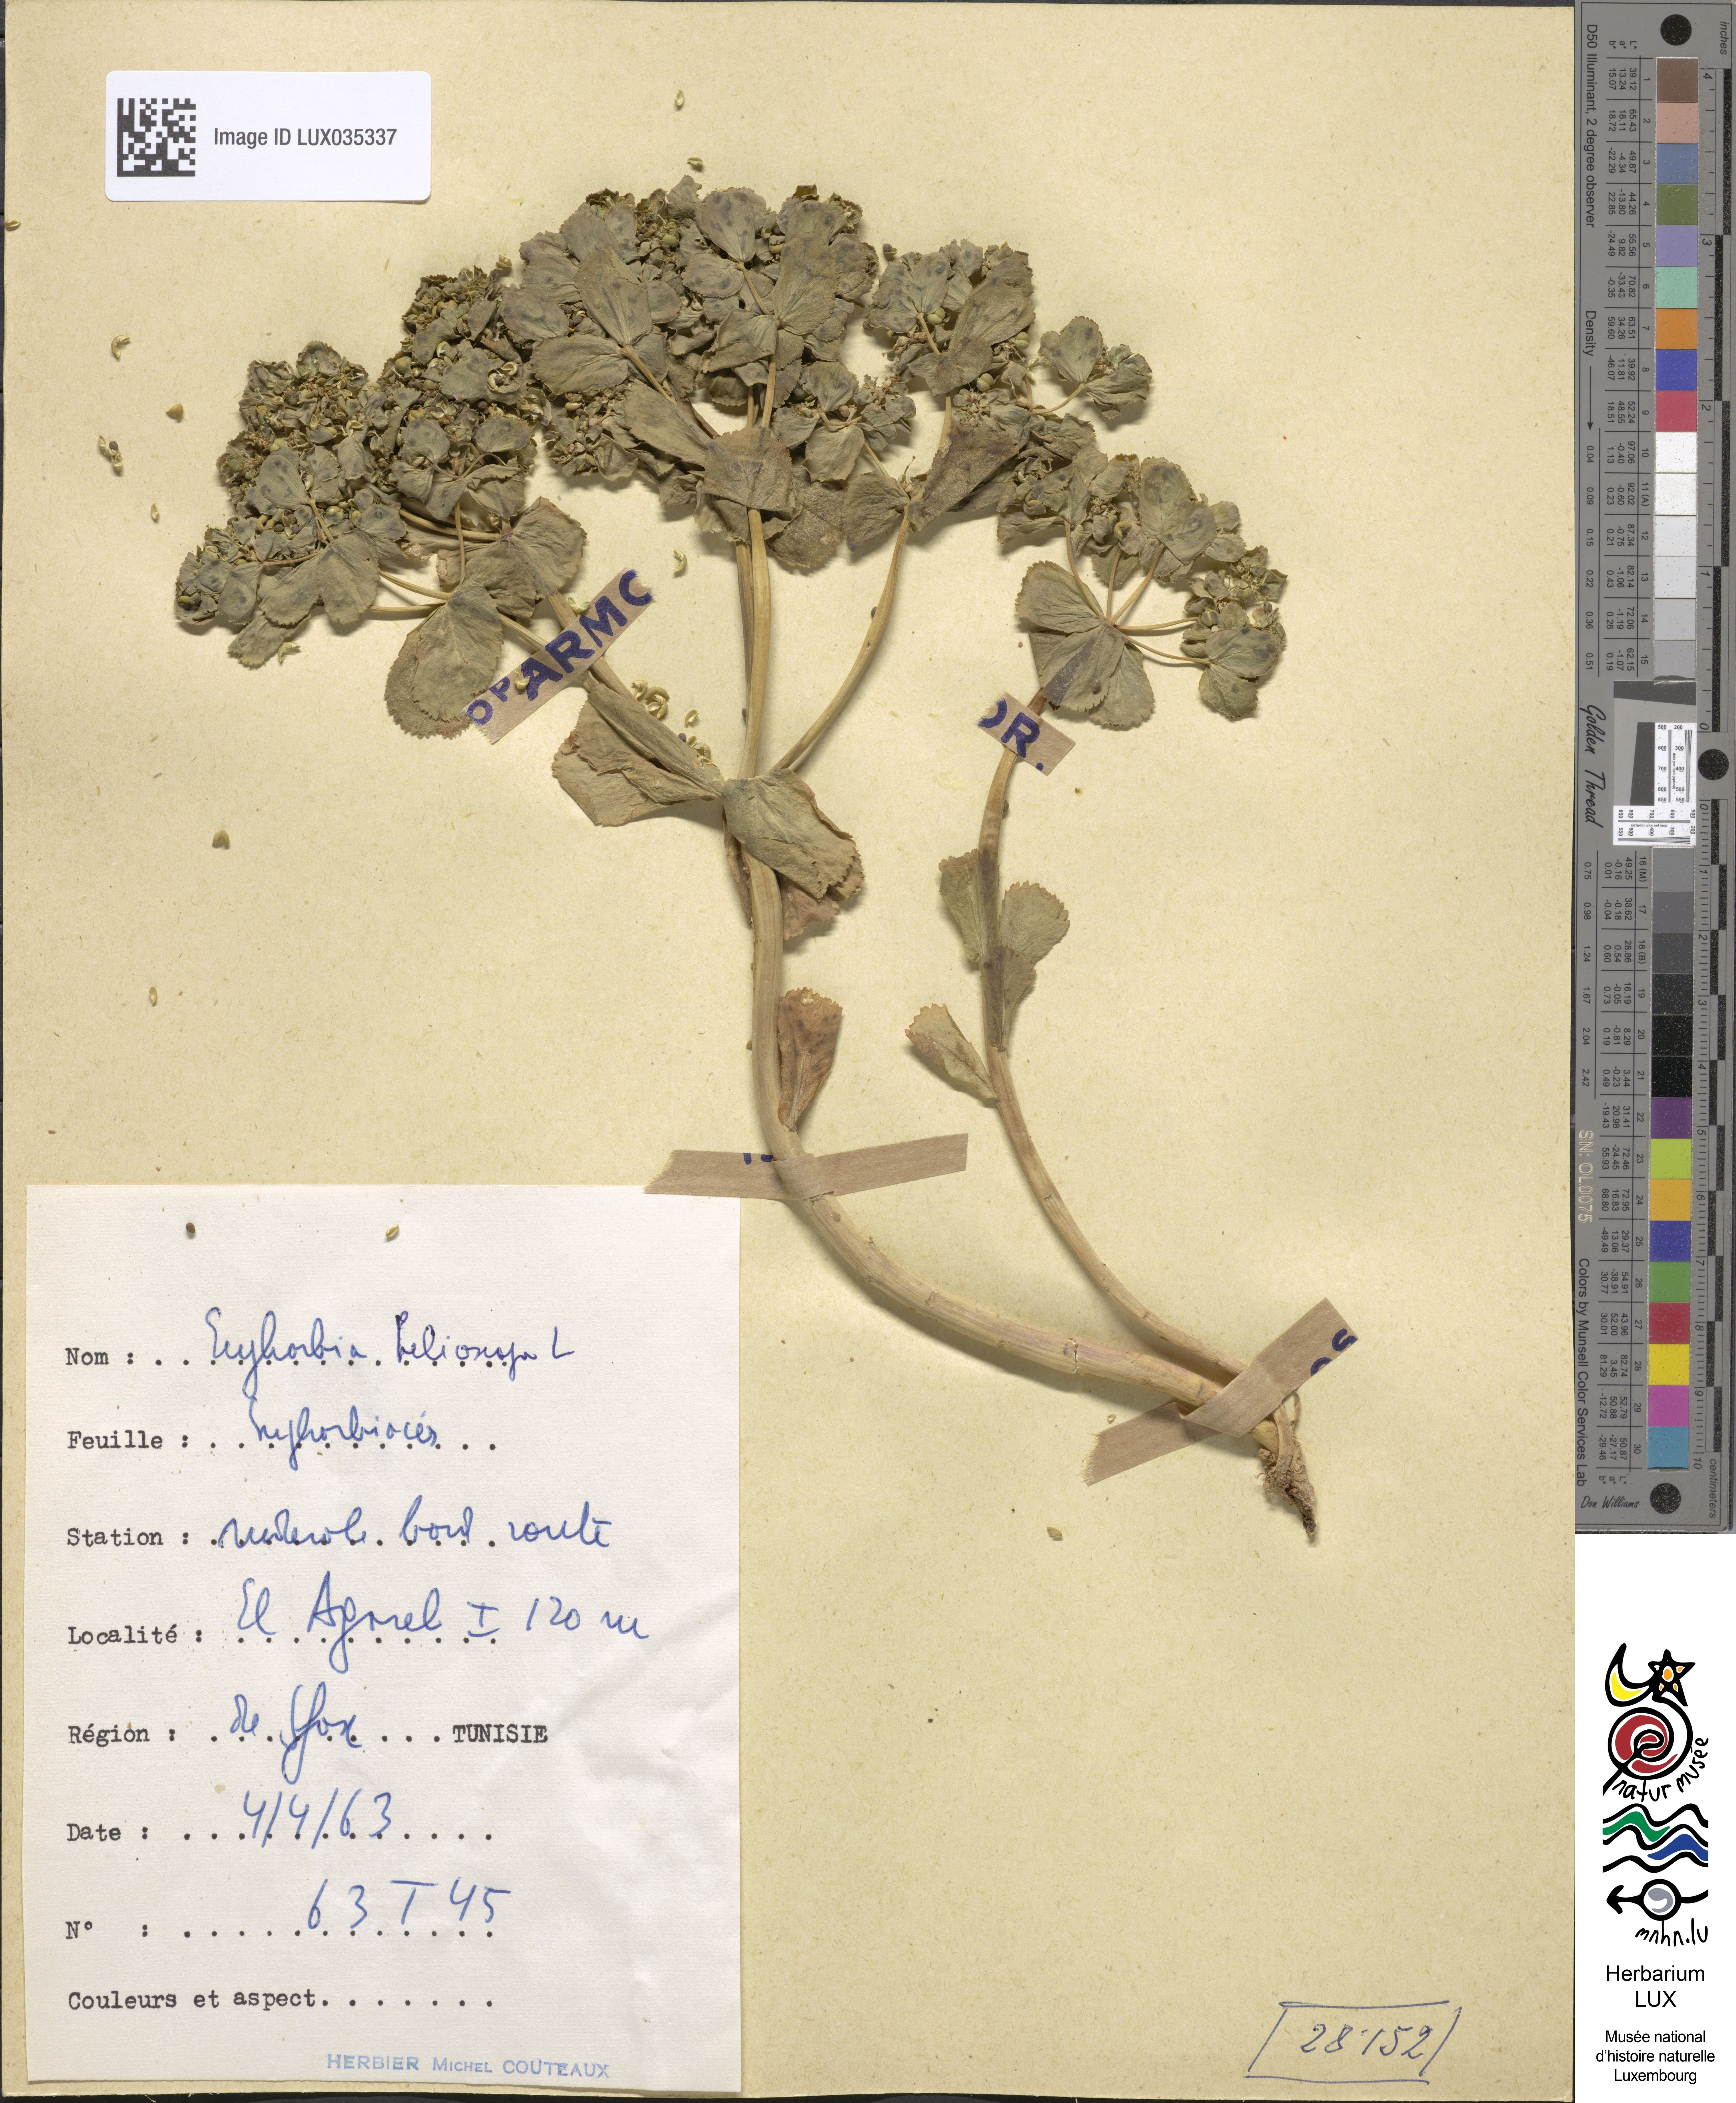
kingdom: Plantae
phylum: Tracheophyta
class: Magnoliopsida
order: Malpighiales
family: Euphorbiaceae
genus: Euphorbia
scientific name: Euphorbia helioscopia
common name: Sun spurge
